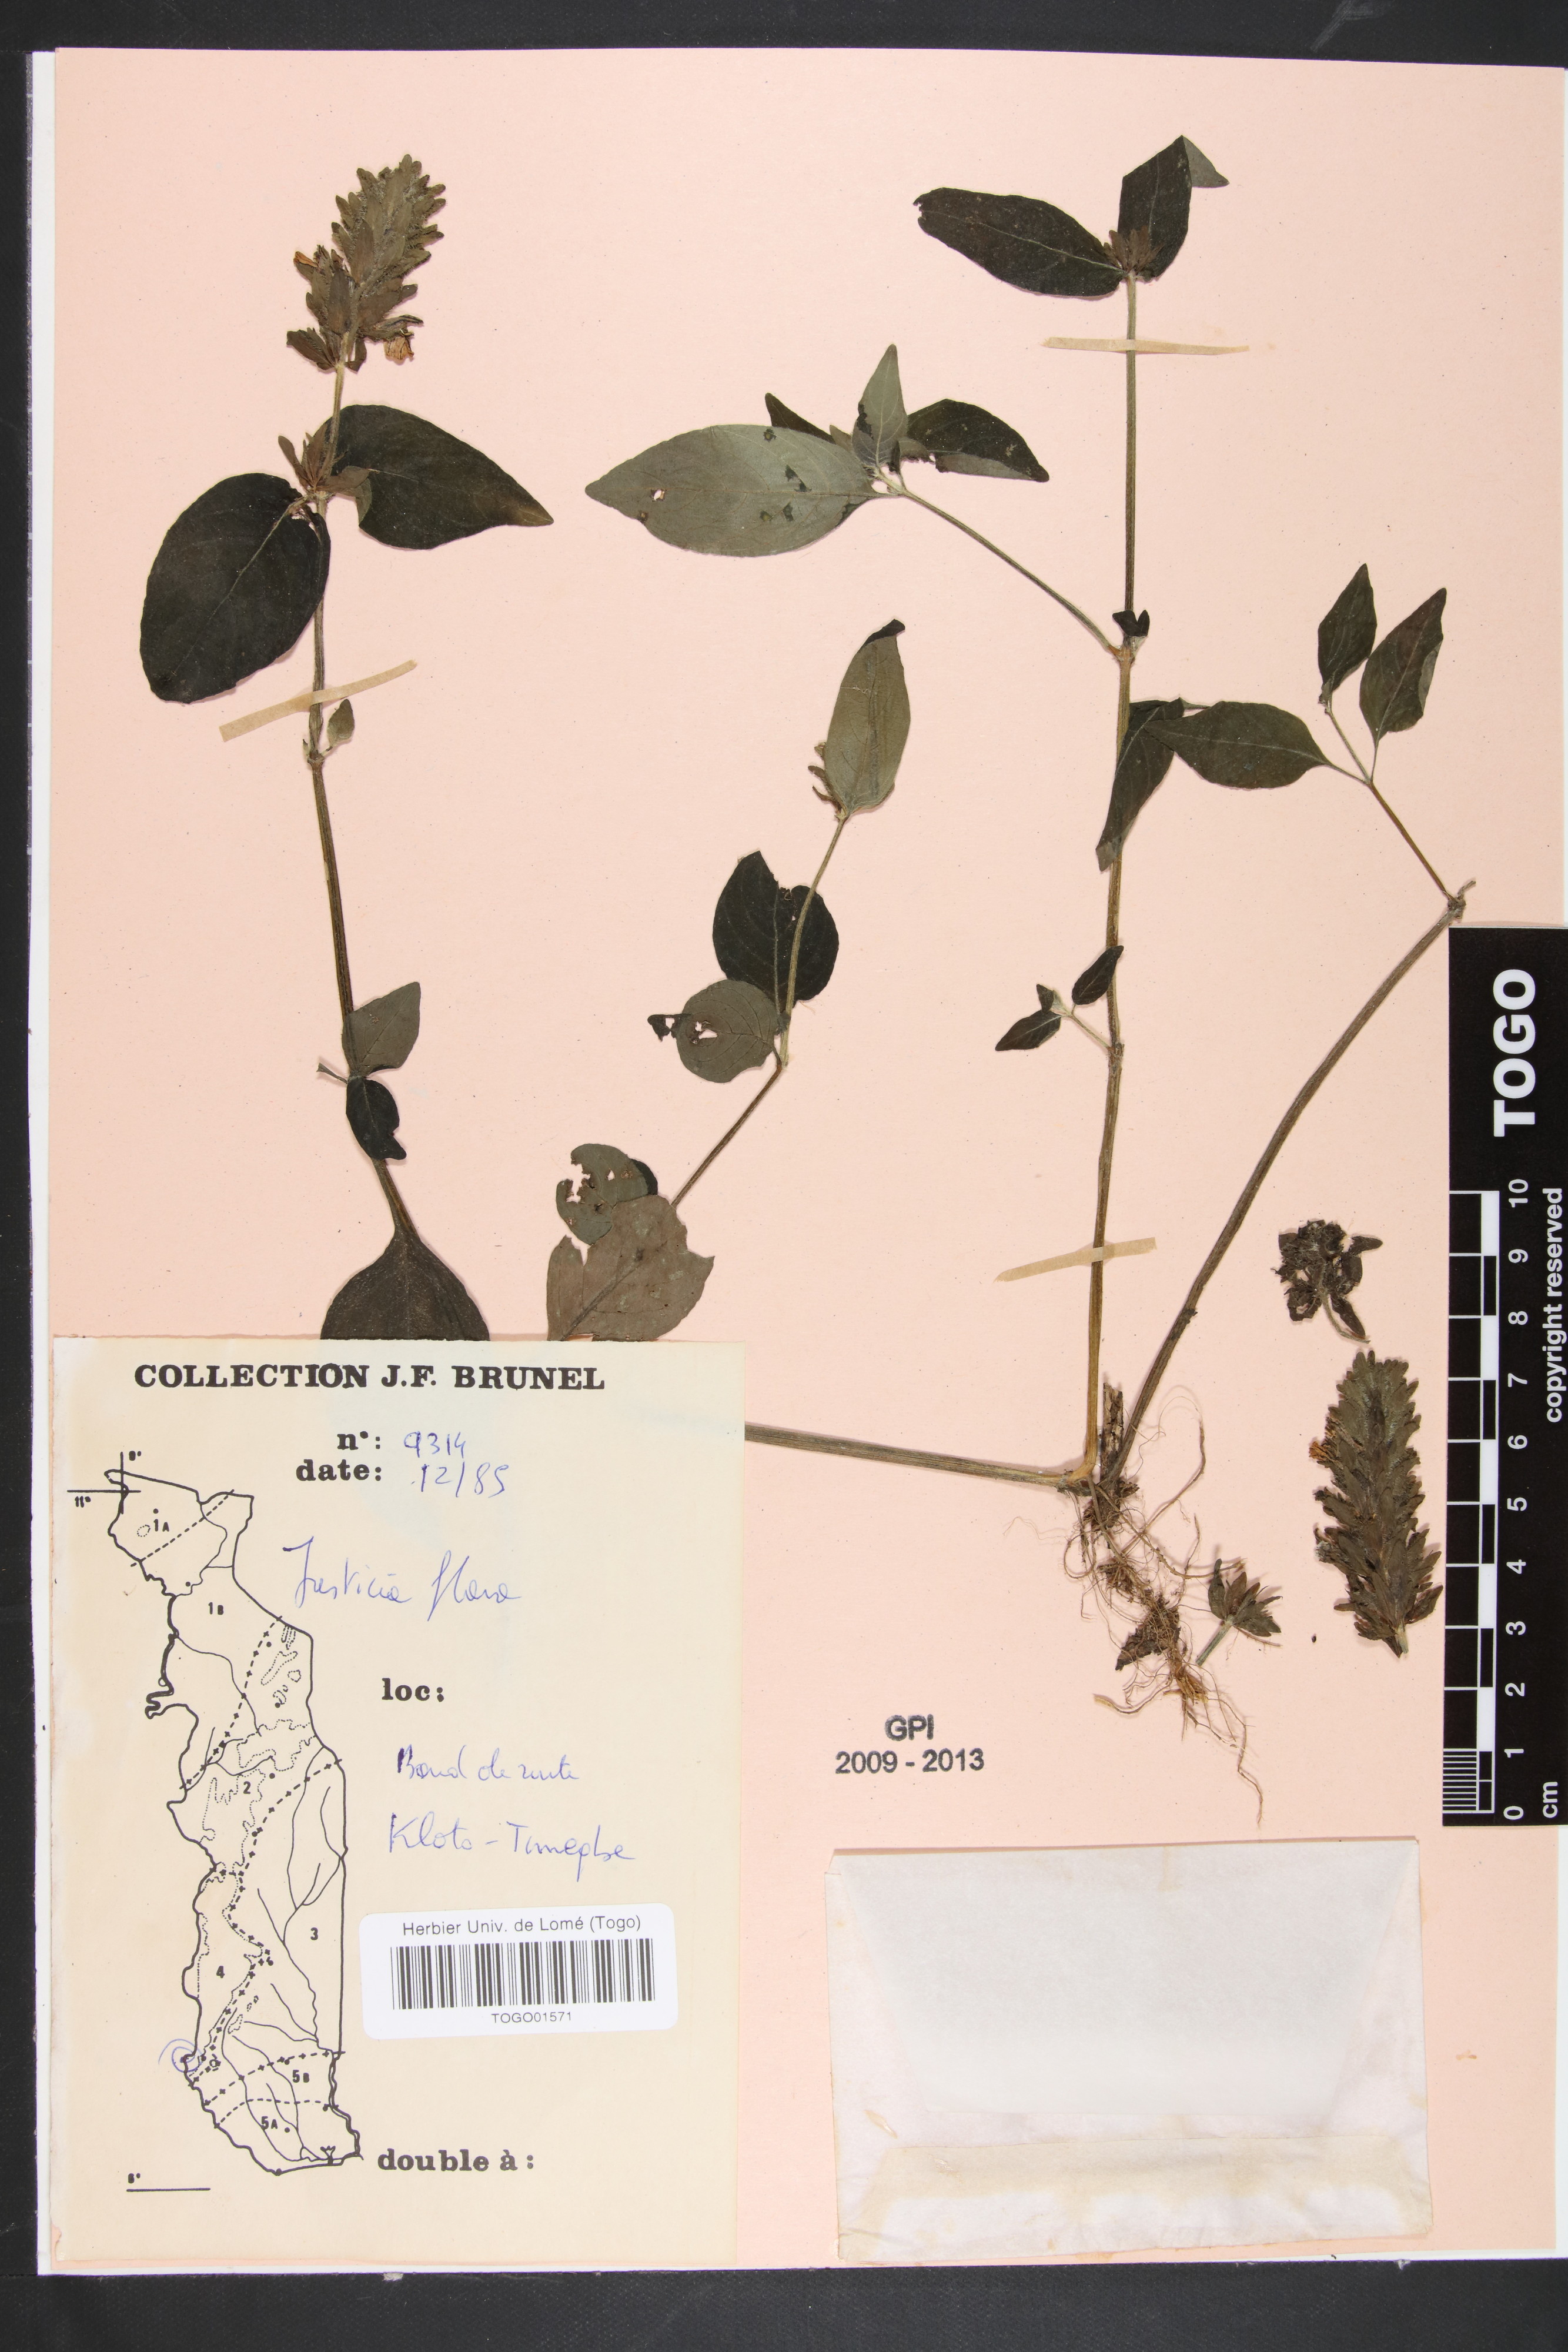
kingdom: Plantae
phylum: Tracheophyta
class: Magnoliopsida
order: Lamiales
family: Acanthaceae
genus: Justicia
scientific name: Justicia flava
